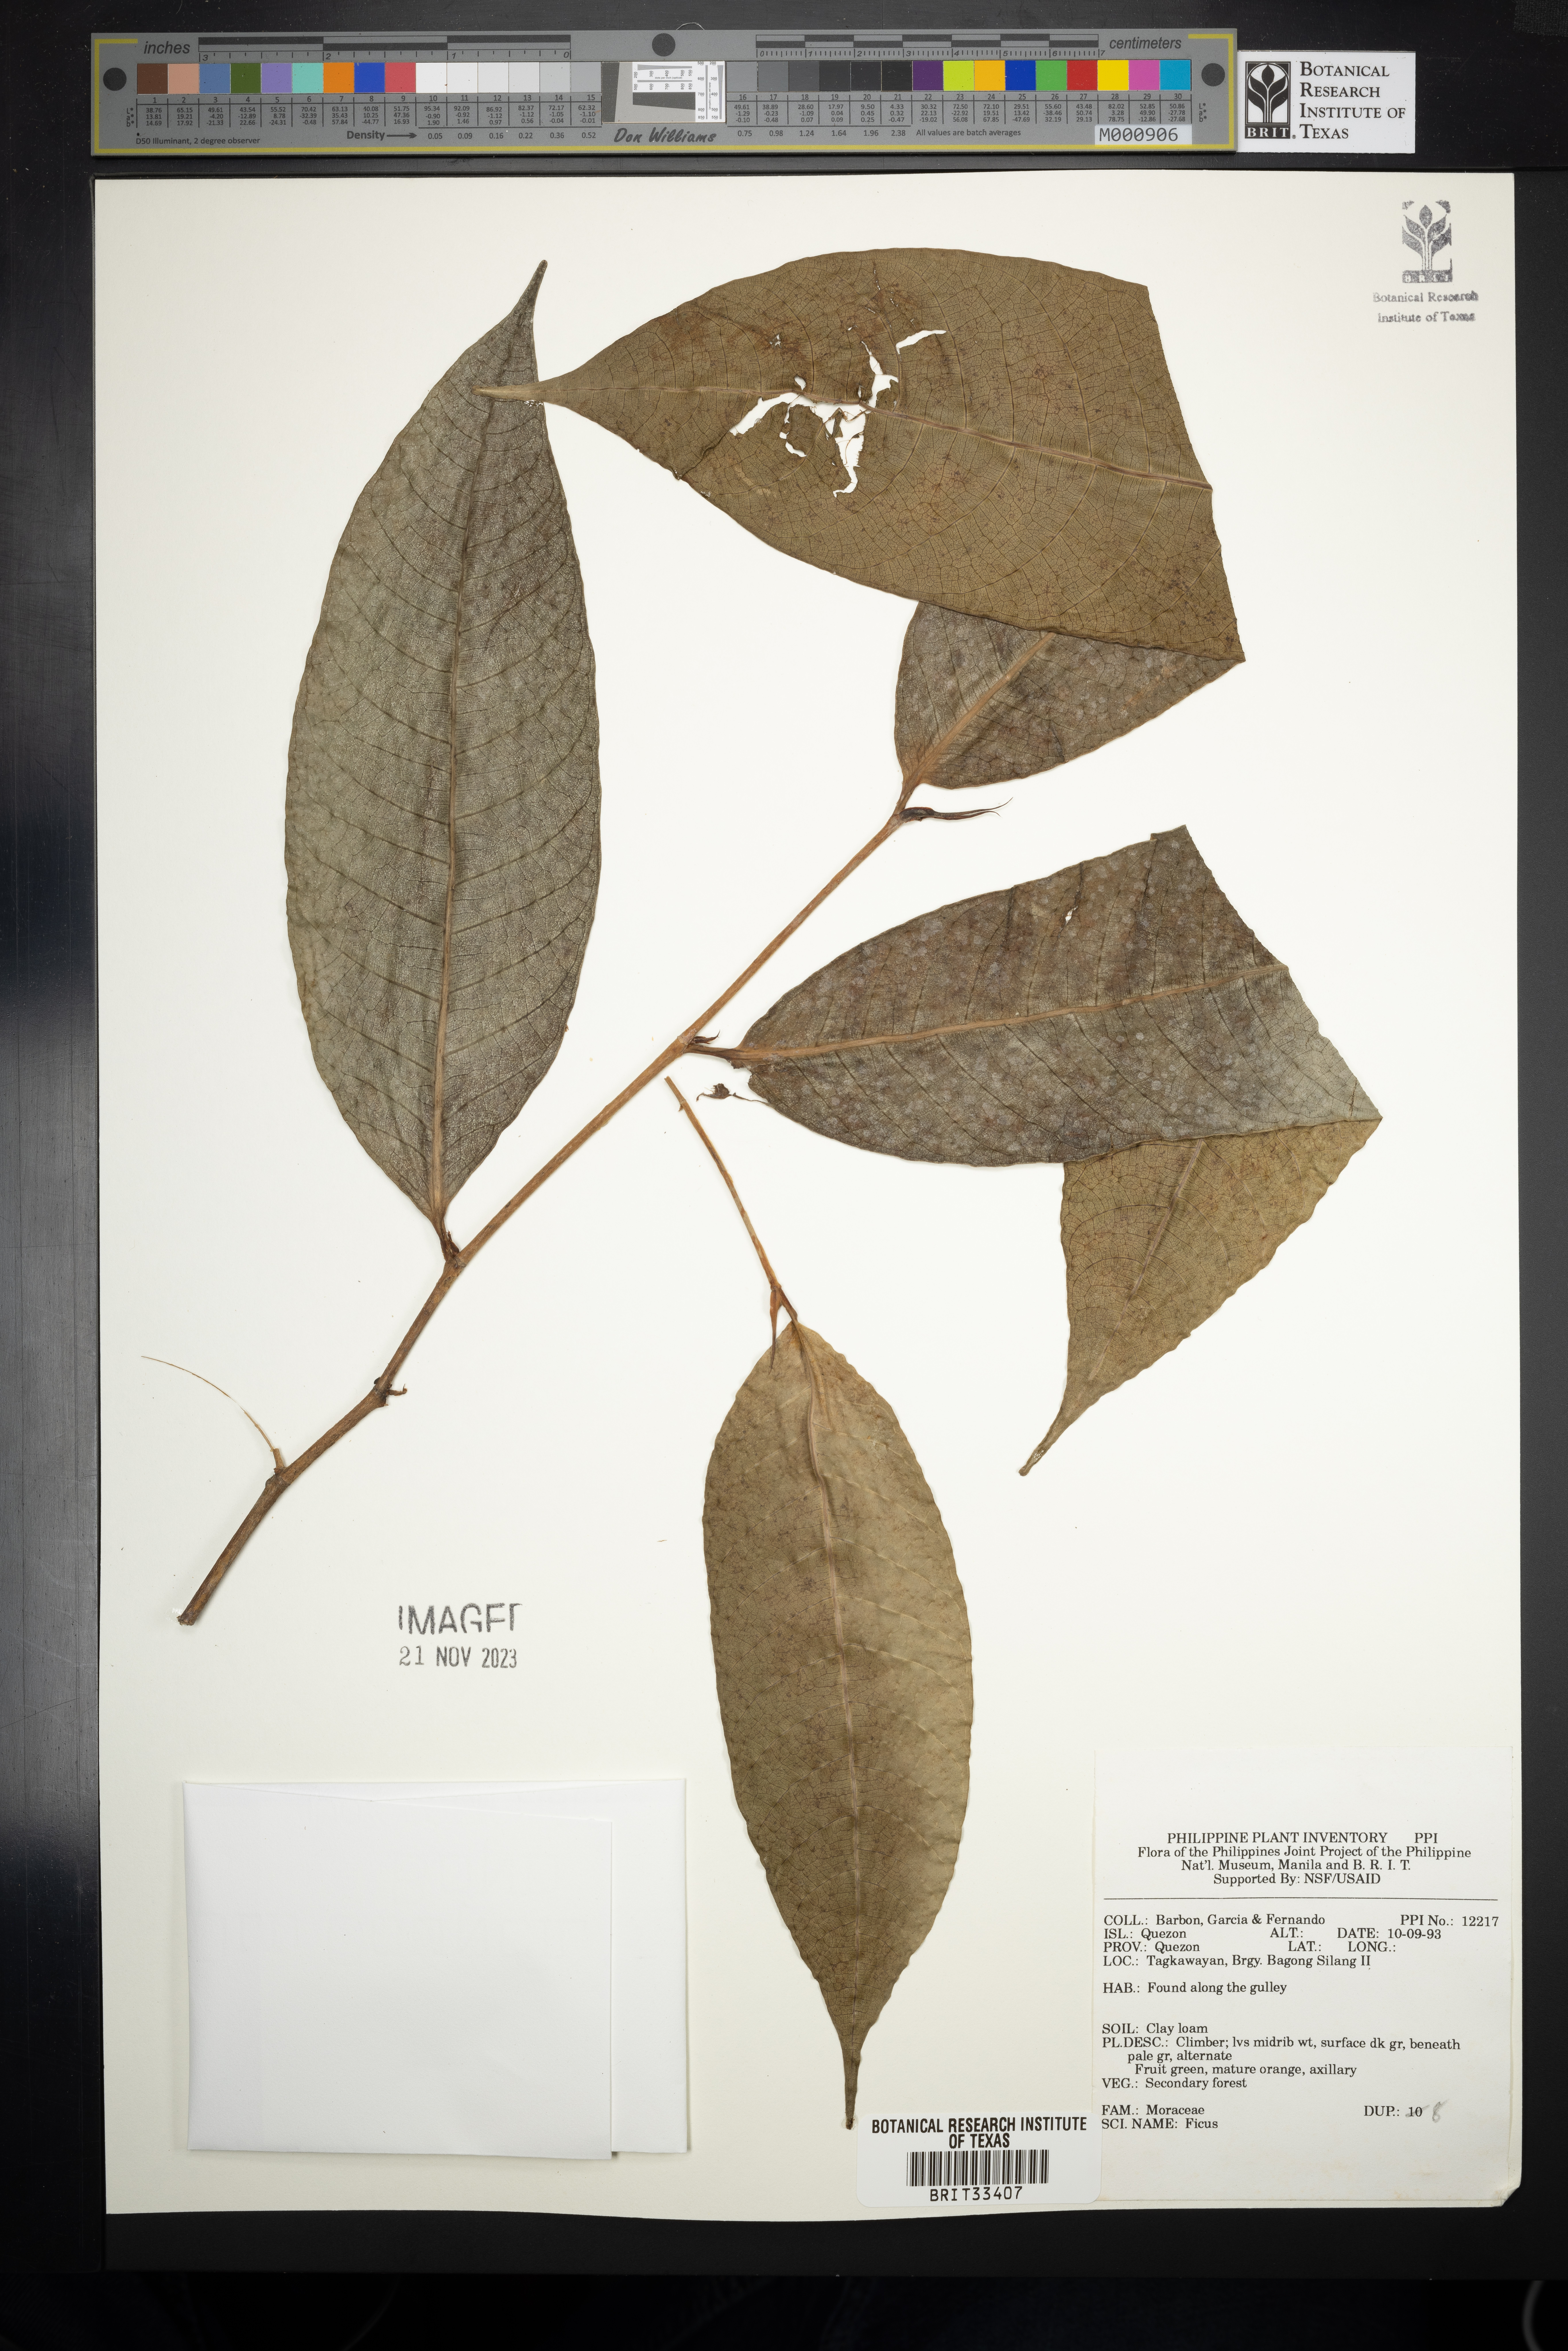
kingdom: Plantae
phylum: Tracheophyta
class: Magnoliopsida
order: Rosales
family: Moraceae
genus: Ficus
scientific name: Ficus
